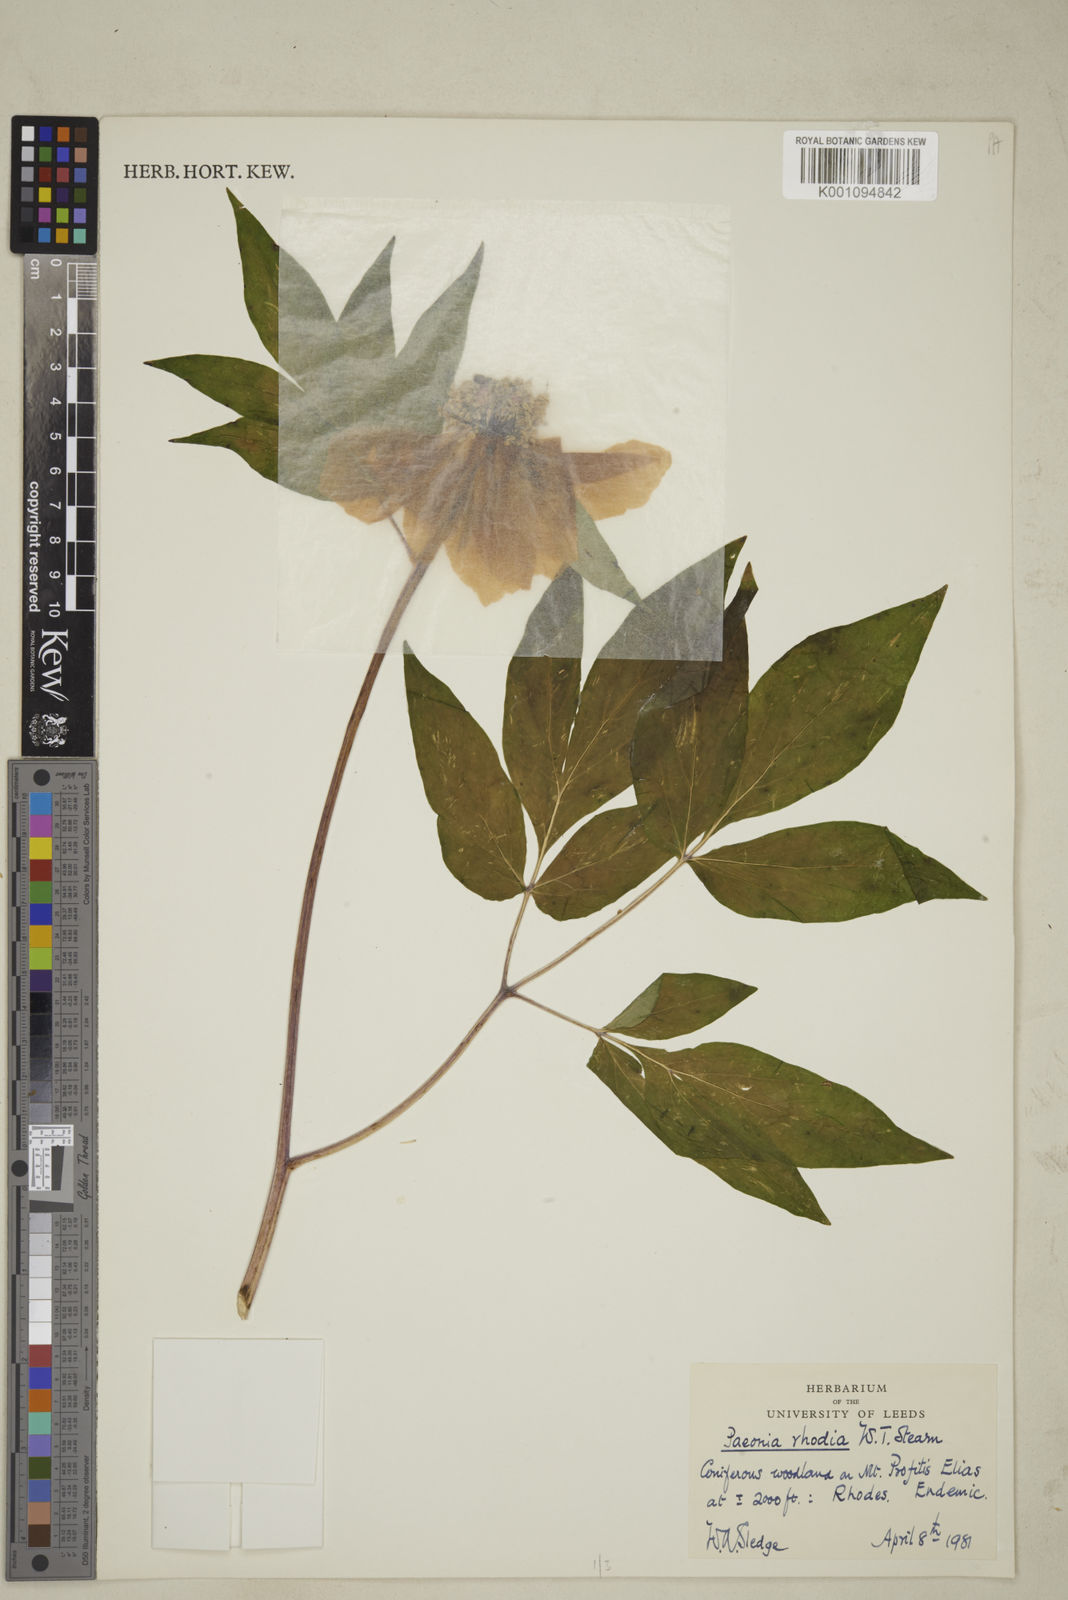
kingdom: Plantae
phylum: Tracheophyta
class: Magnoliopsida
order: Saxifragales
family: Paeoniaceae
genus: Paeonia
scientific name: Paeonia clusii
